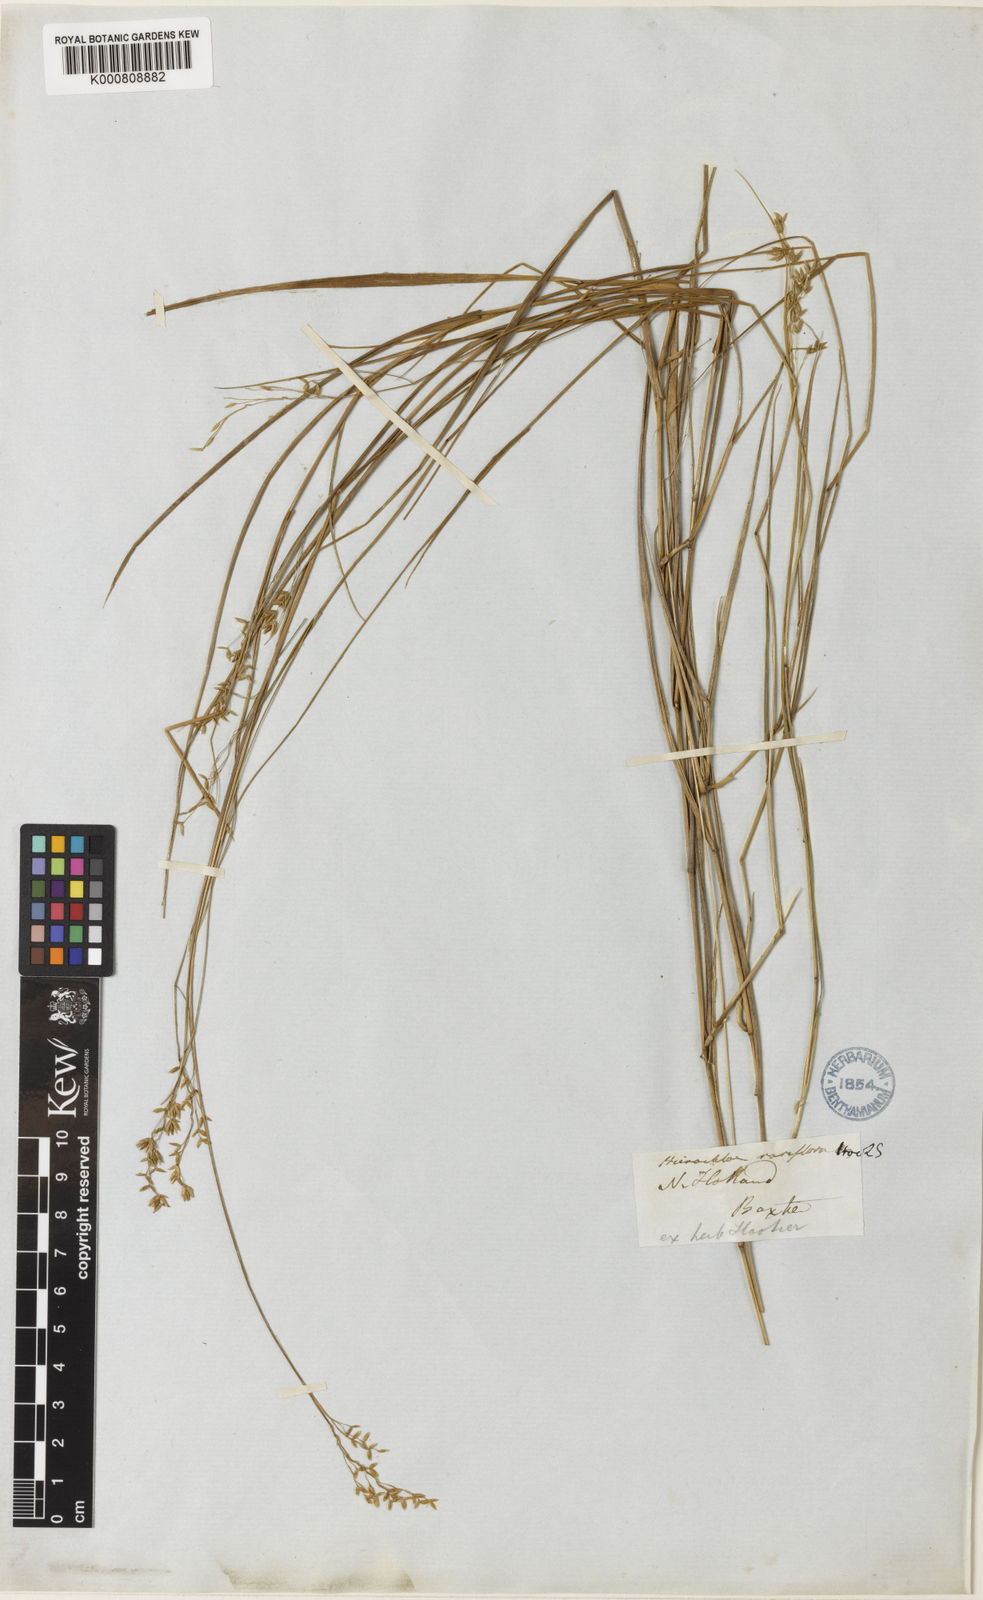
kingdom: Plantae
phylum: Tracheophyta
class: Liliopsida
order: Poales
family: Poaceae
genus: Anthoxanthum
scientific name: Anthoxanthum rariflorum
